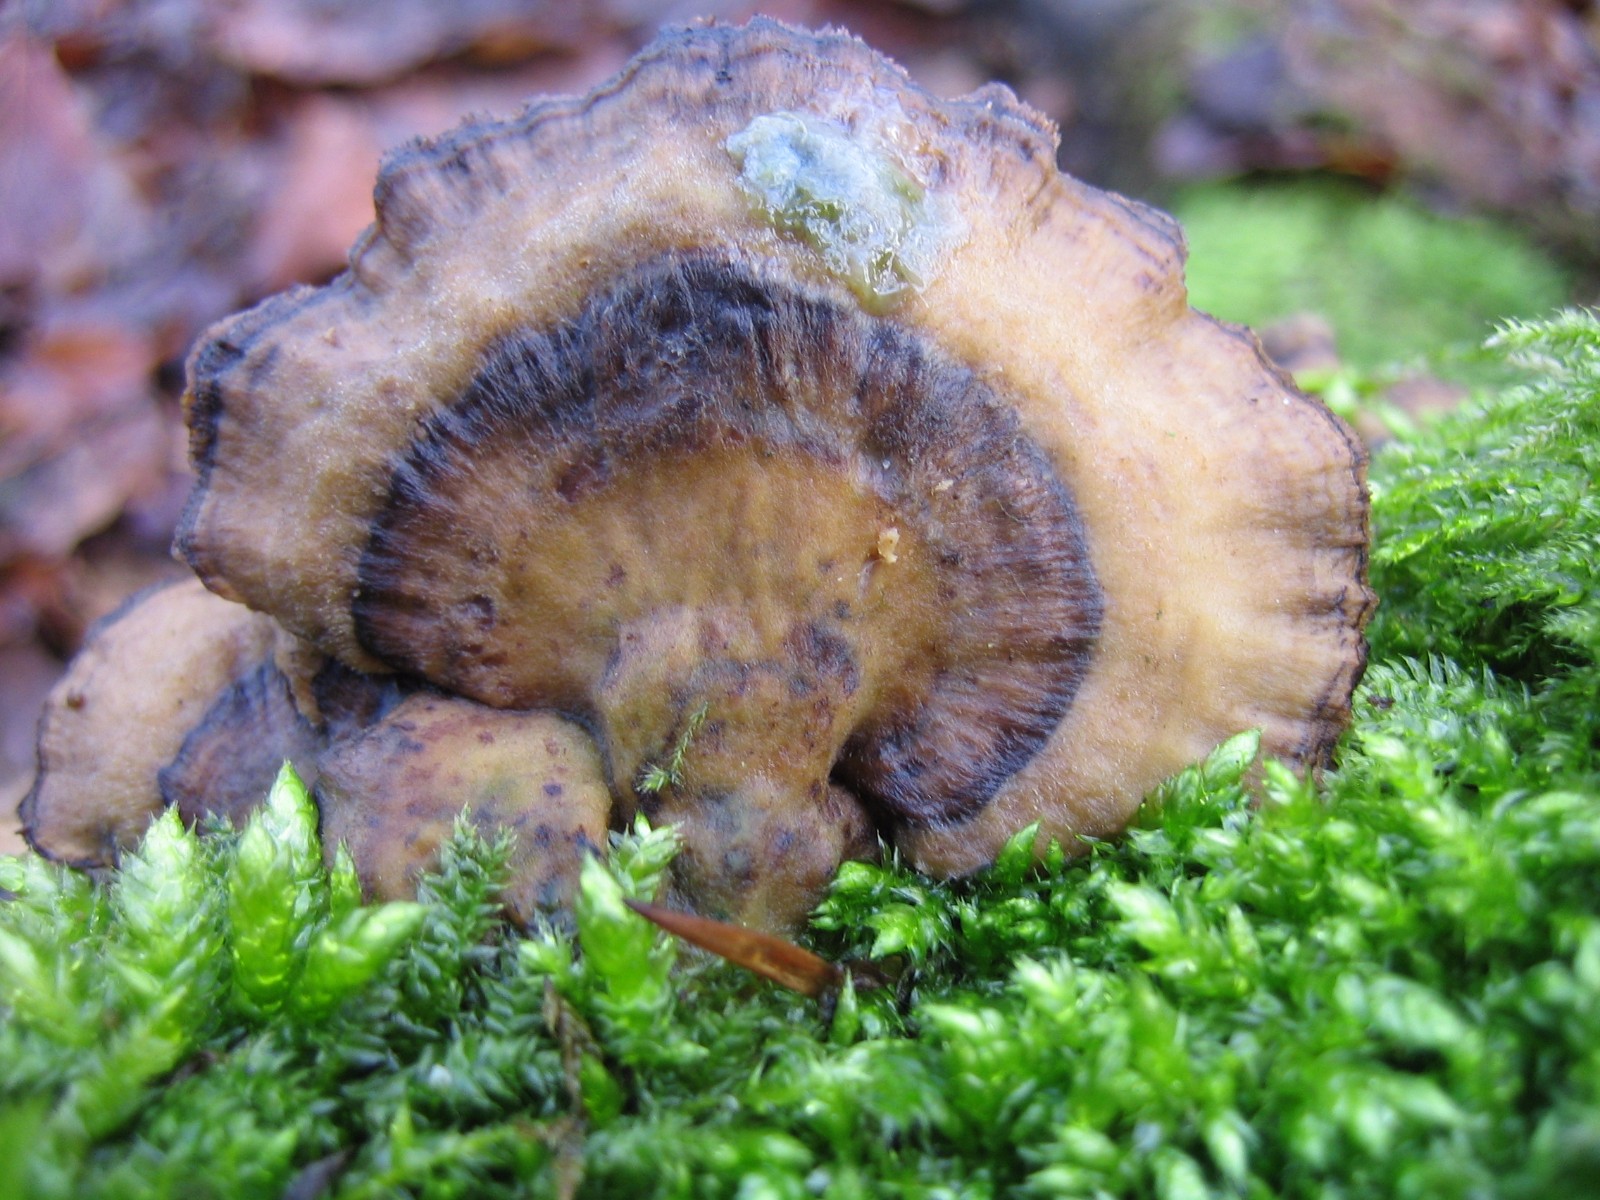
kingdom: Fungi
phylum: Basidiomycota
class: Agaricomycetes
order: Polyporales
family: Phanerochaetaceae
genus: Bjerkandera
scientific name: Bjerkandera adusta
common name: sveden sodporesvamp
